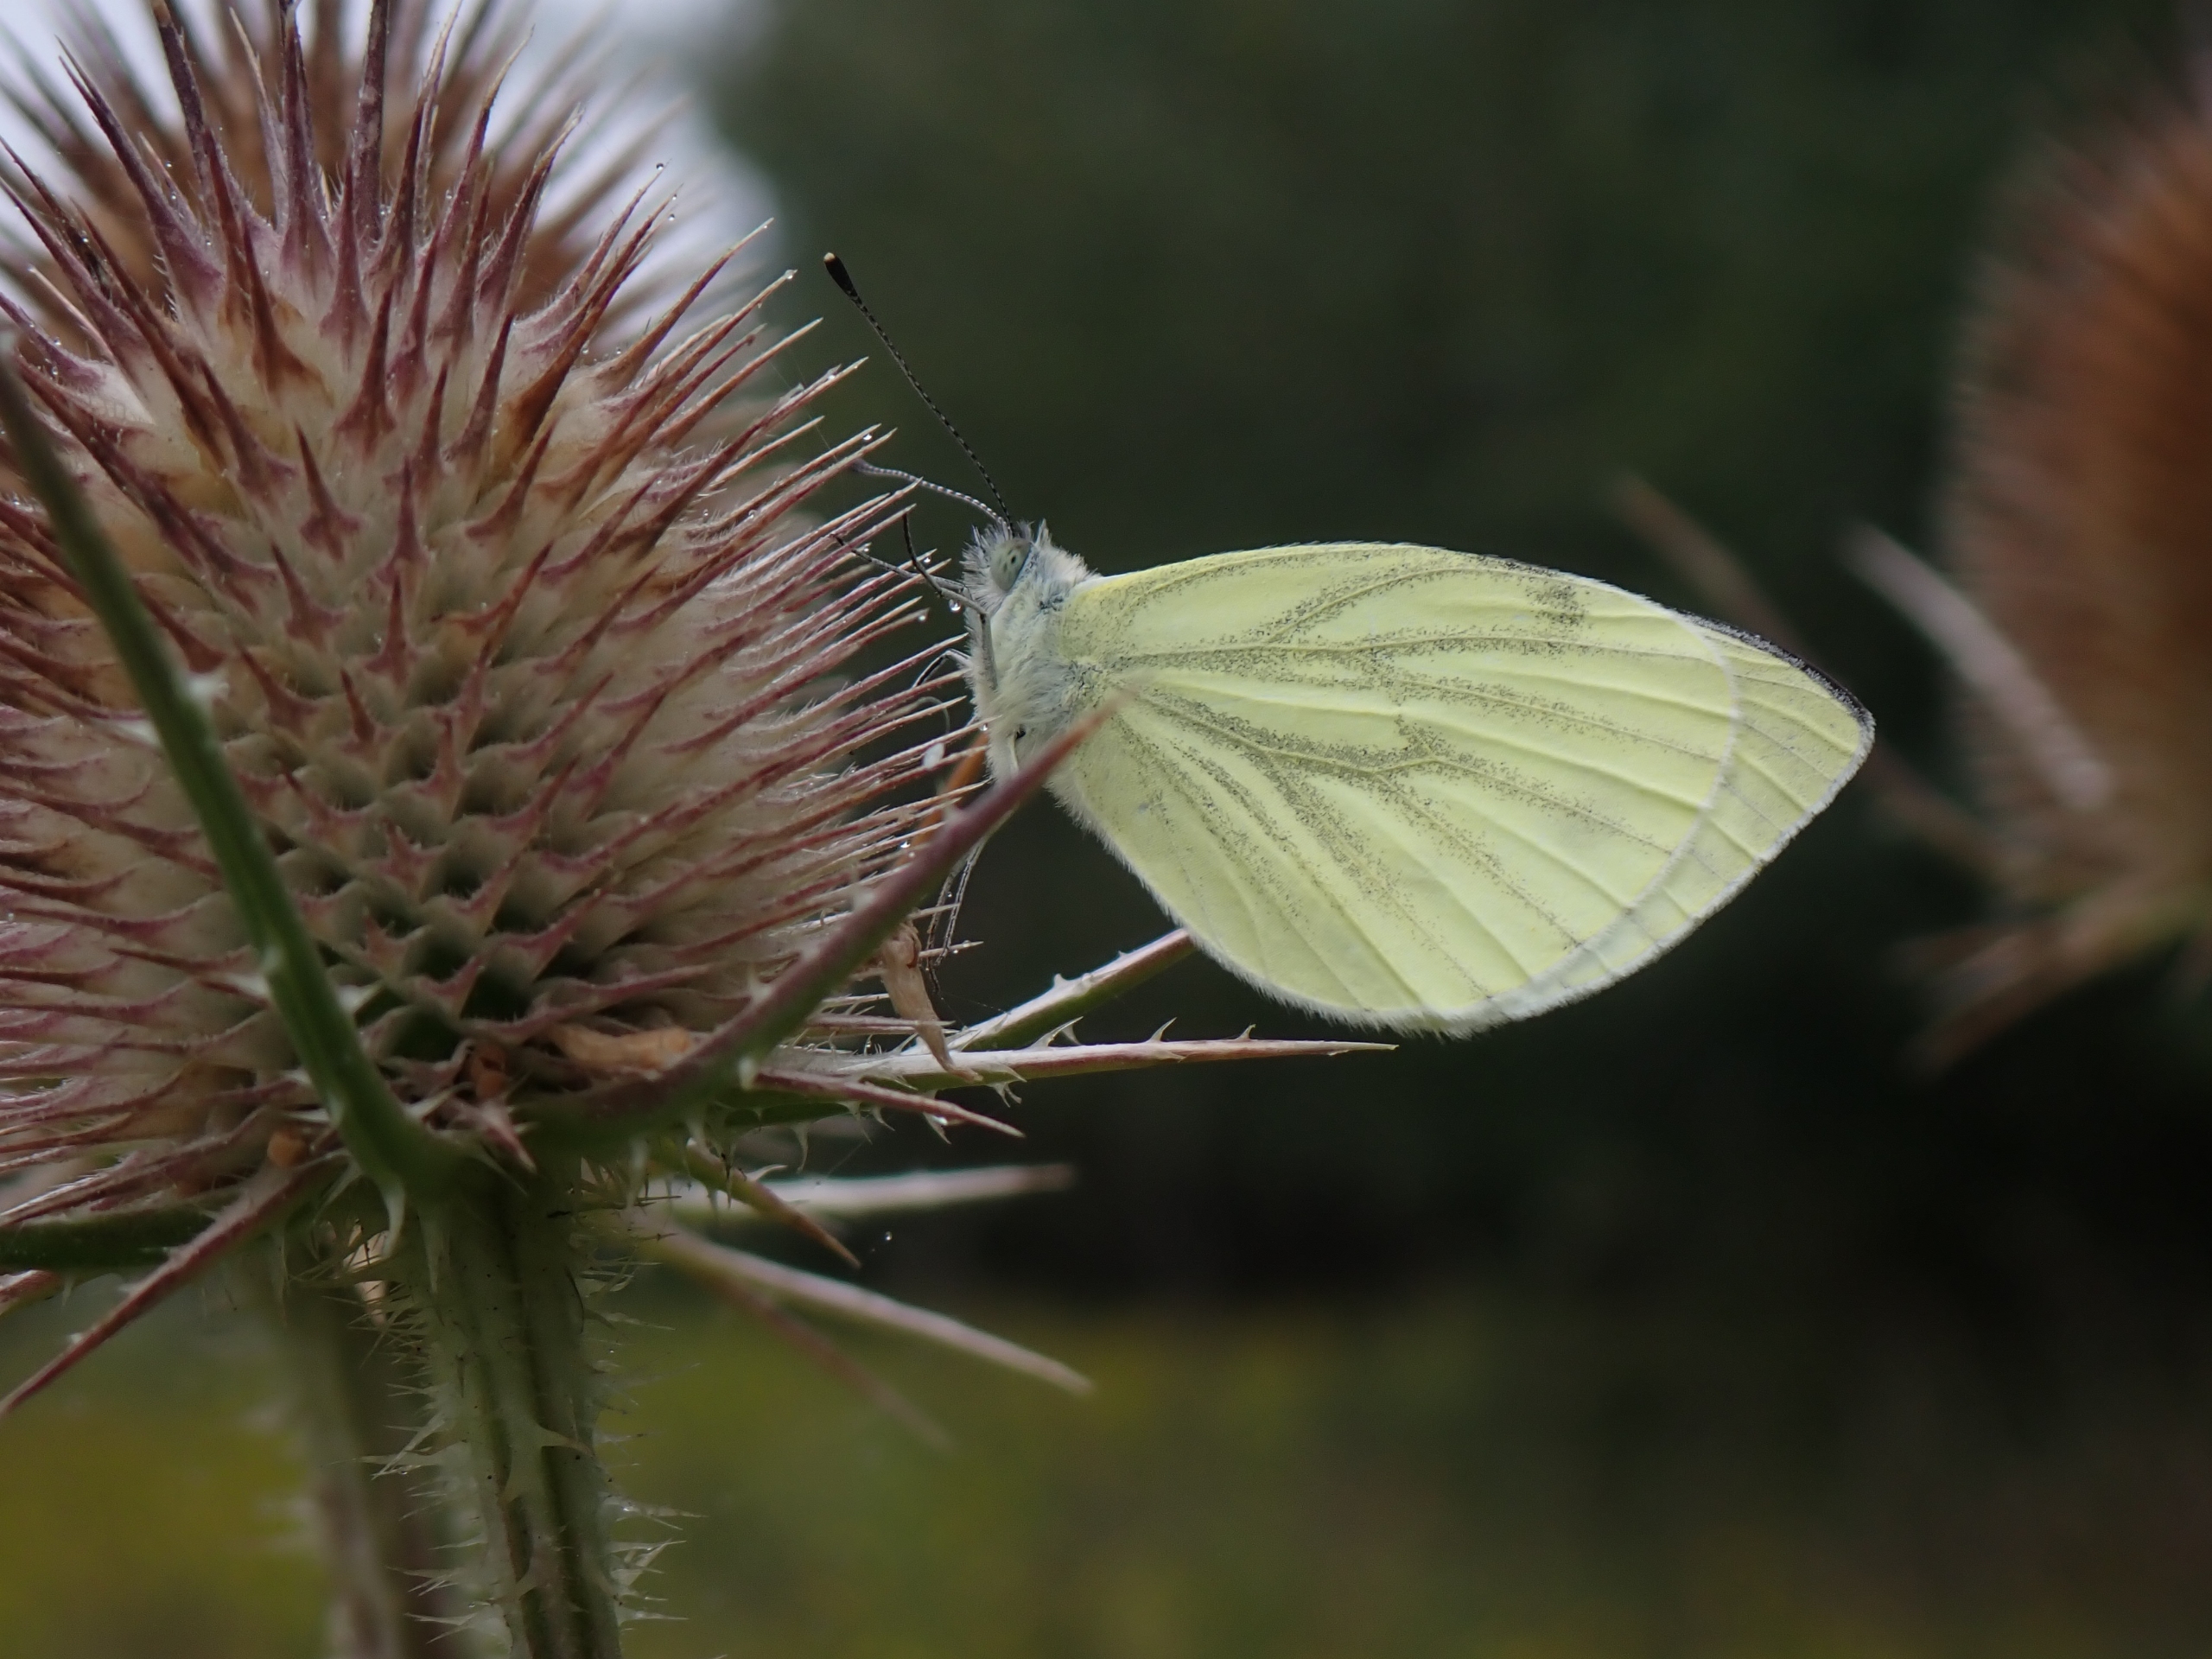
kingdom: Animalia
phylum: Arthropoda
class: Insecta
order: Lepidoptera
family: Pieridae
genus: Pieris
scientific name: Pieris napi
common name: Grønåret kålsommerfugl
